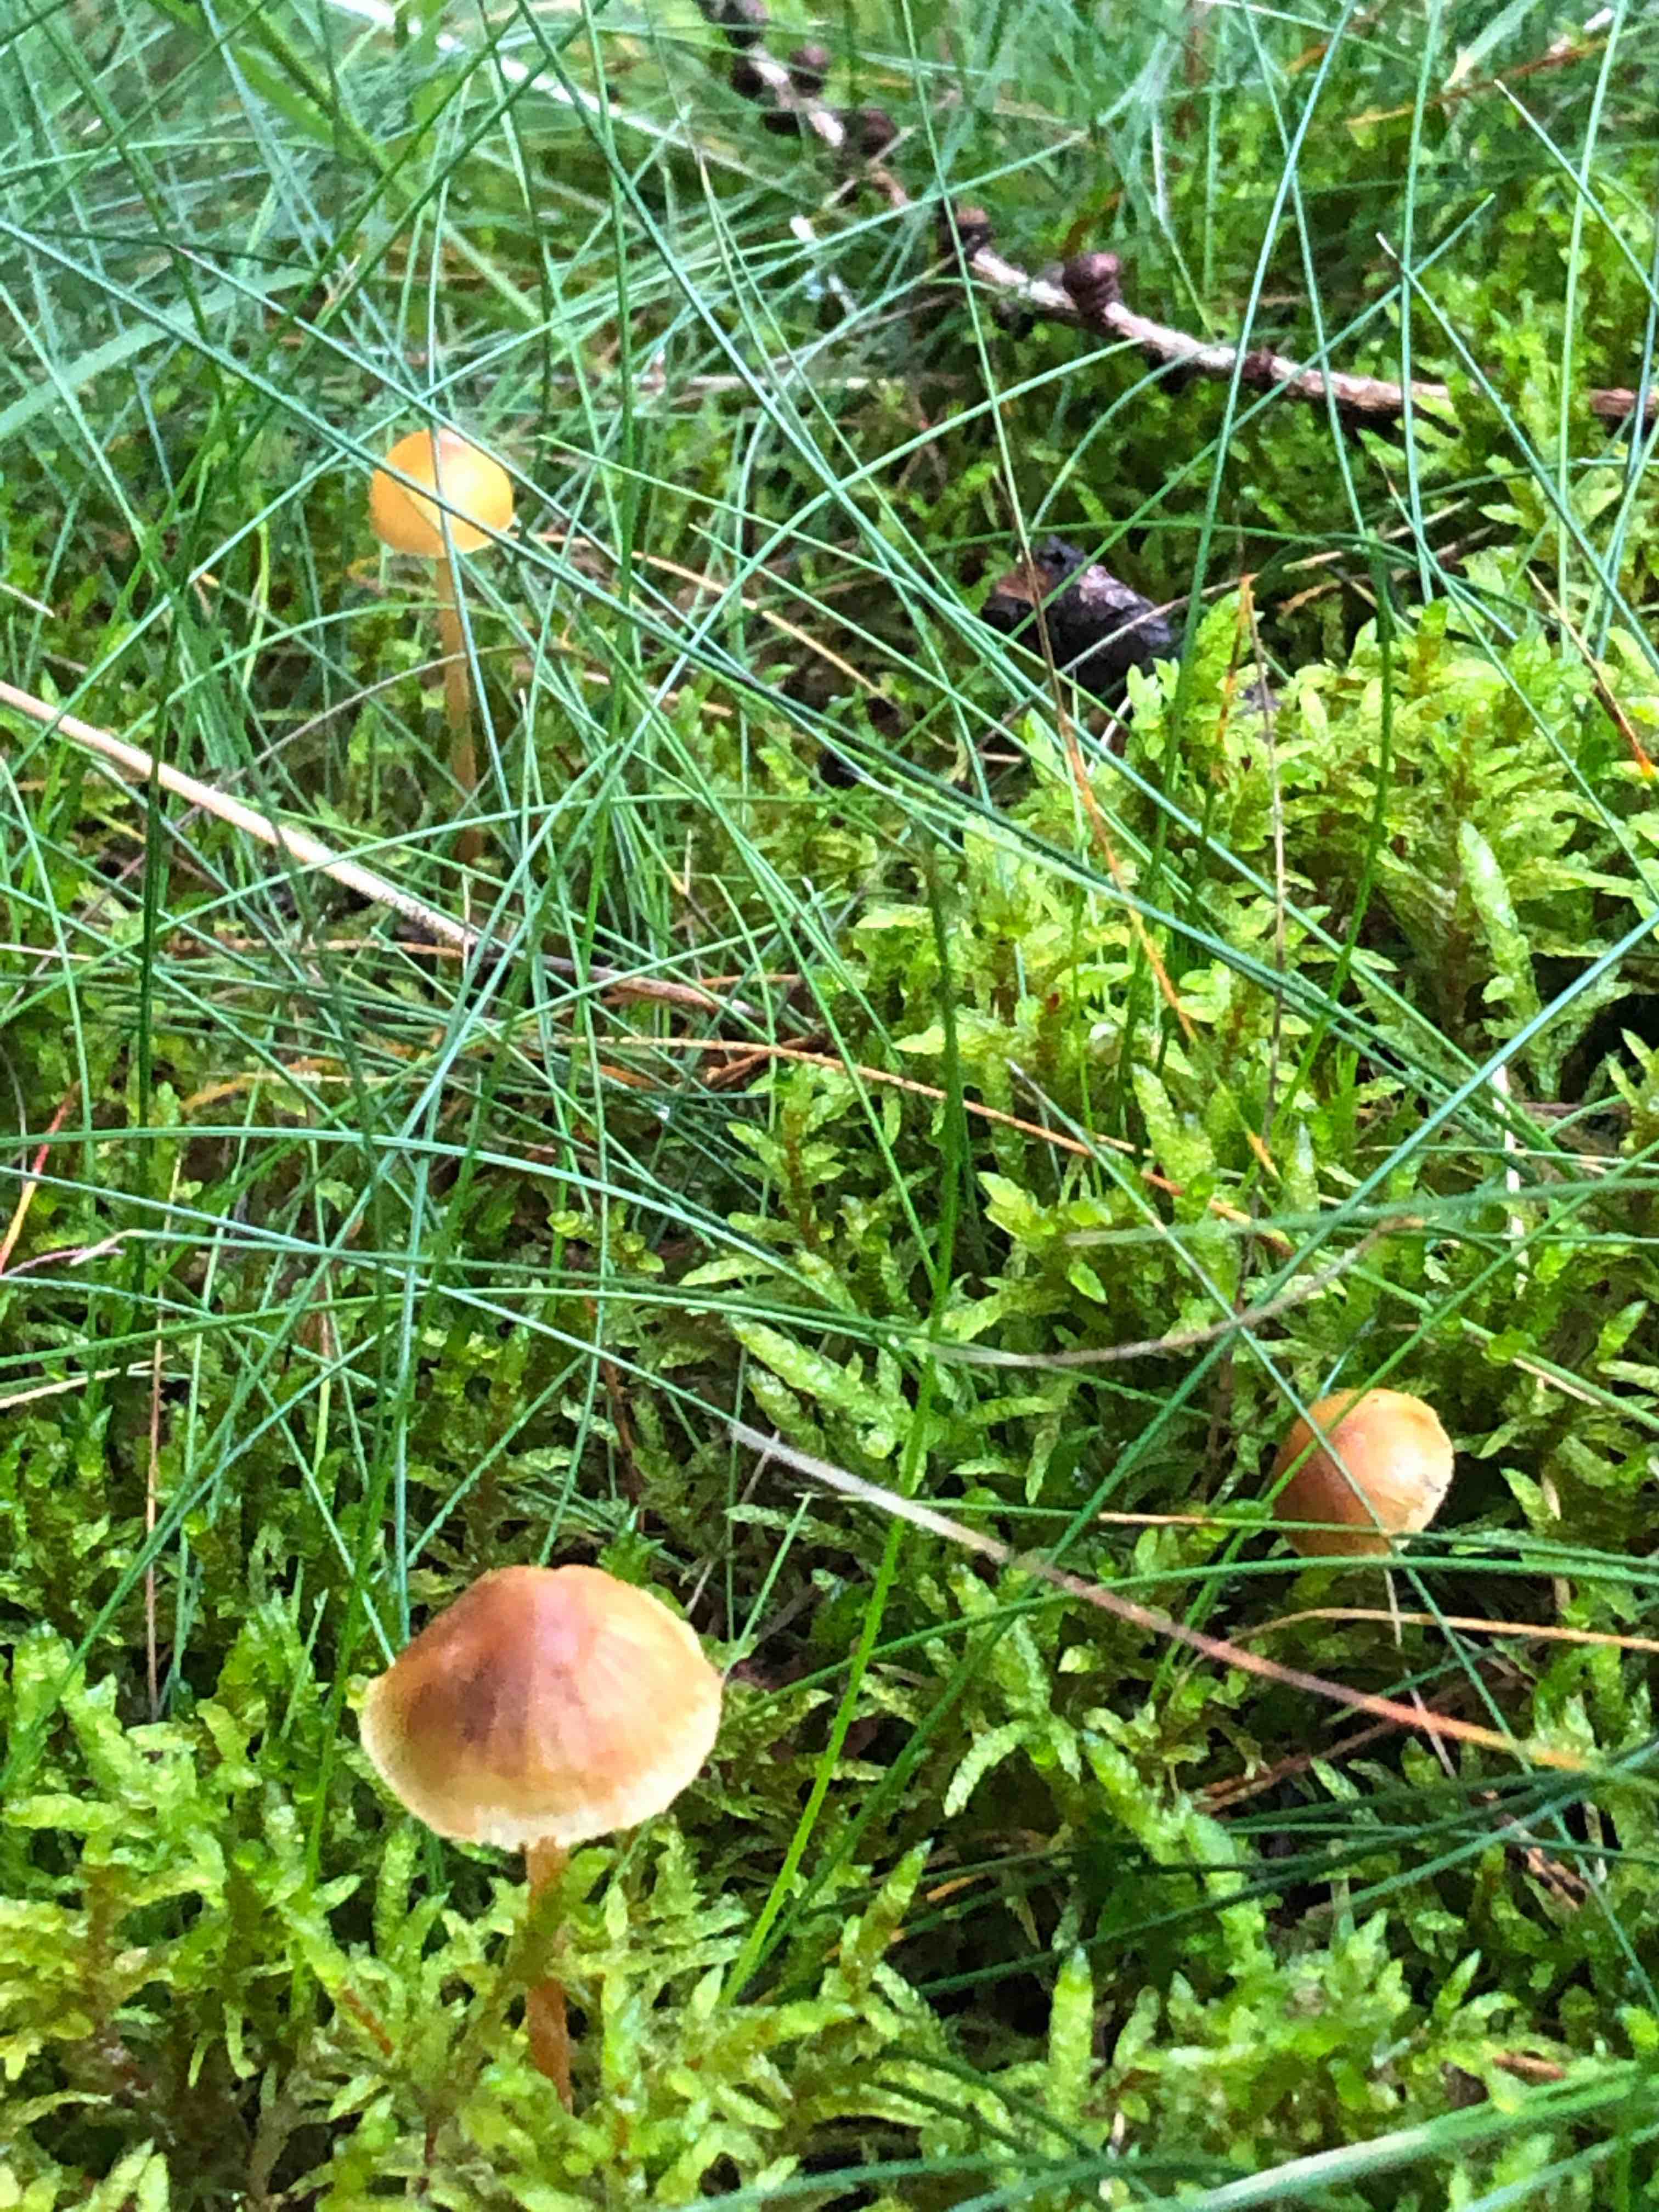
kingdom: Fungi
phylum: Basidiomycota
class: Agaricomycetes
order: Agaricales
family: Hymenogastraceae
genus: Galerina
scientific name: Galerina
